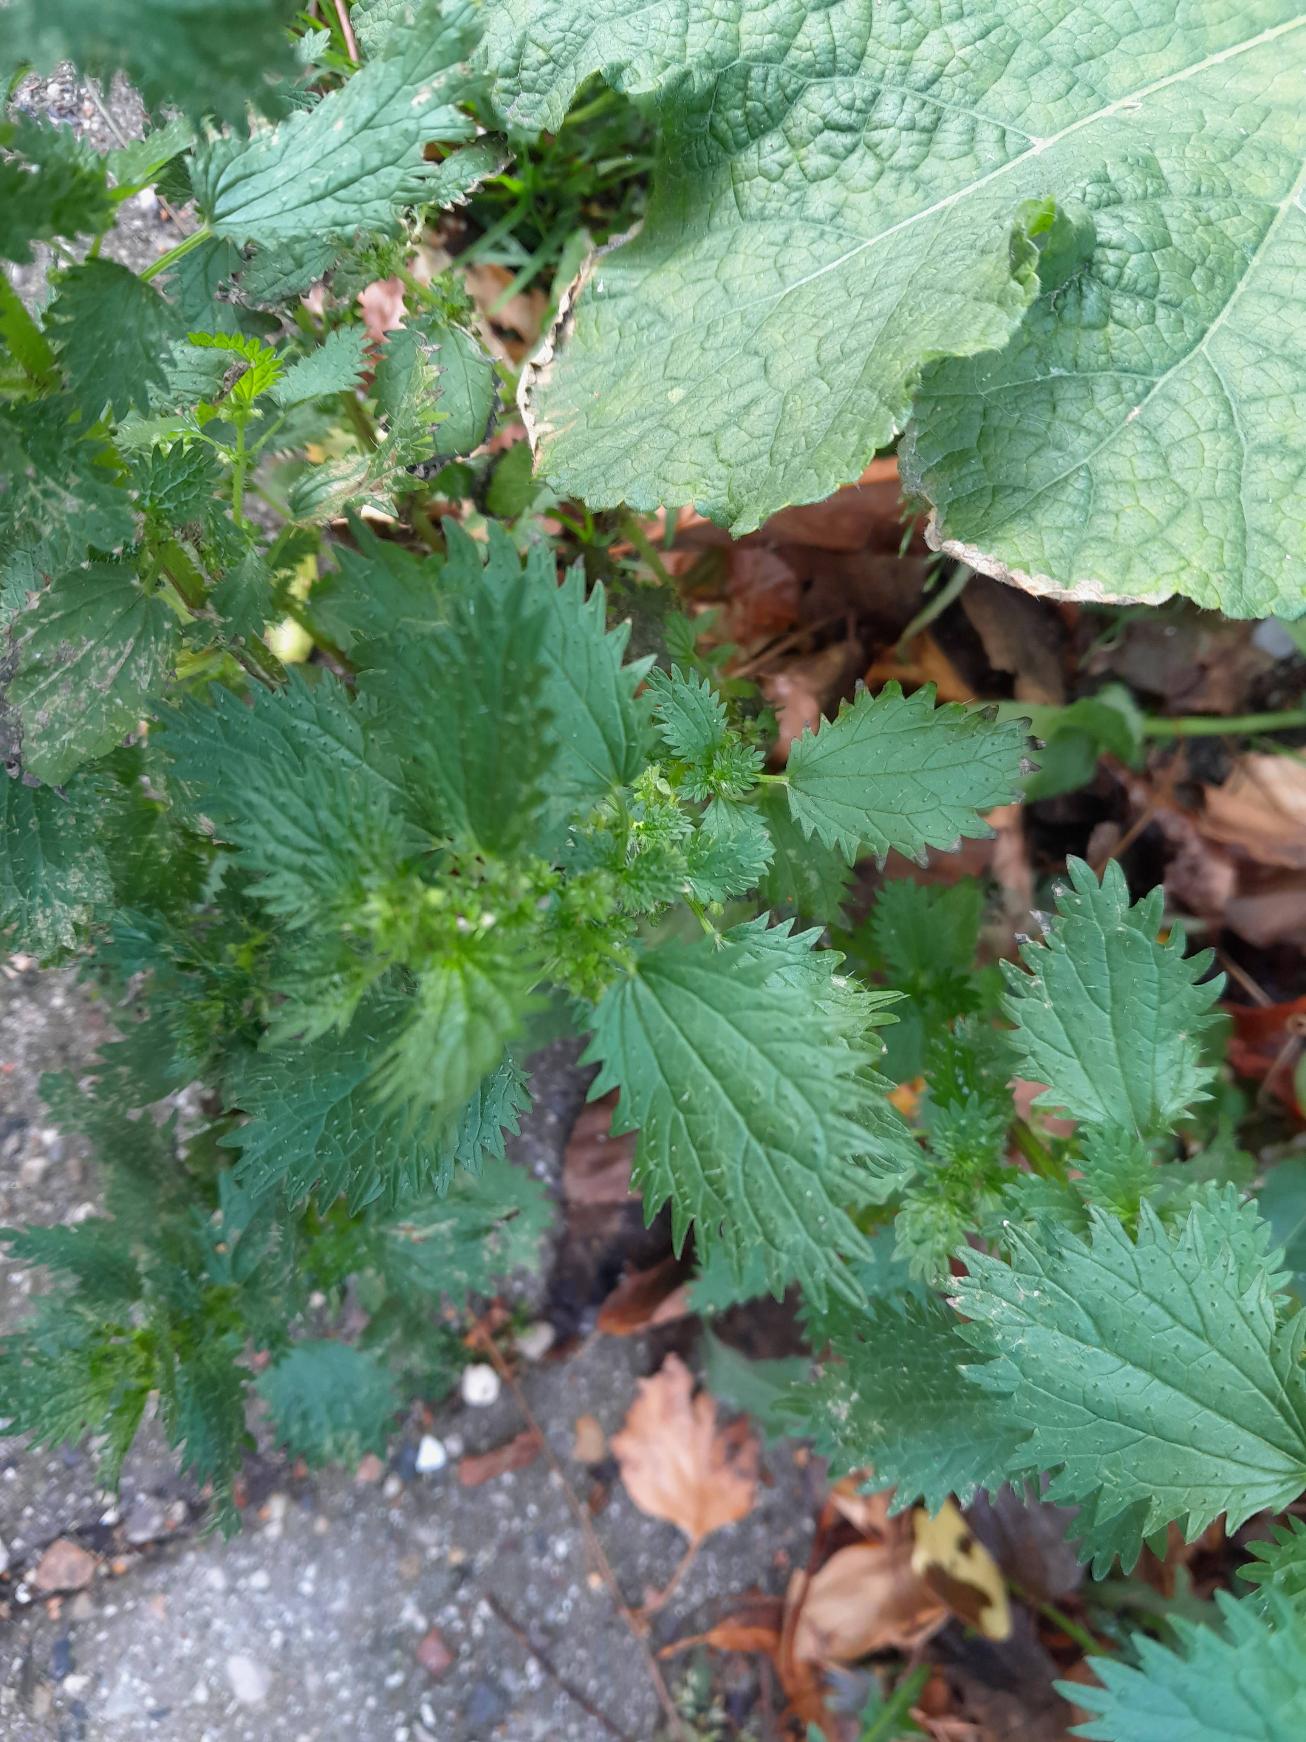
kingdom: Plantae
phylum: Tracheophyta
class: Magnoliopsida
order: Rosales
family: Urticaceae
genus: Urtica
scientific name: Urtica urens
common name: Liden nælde
